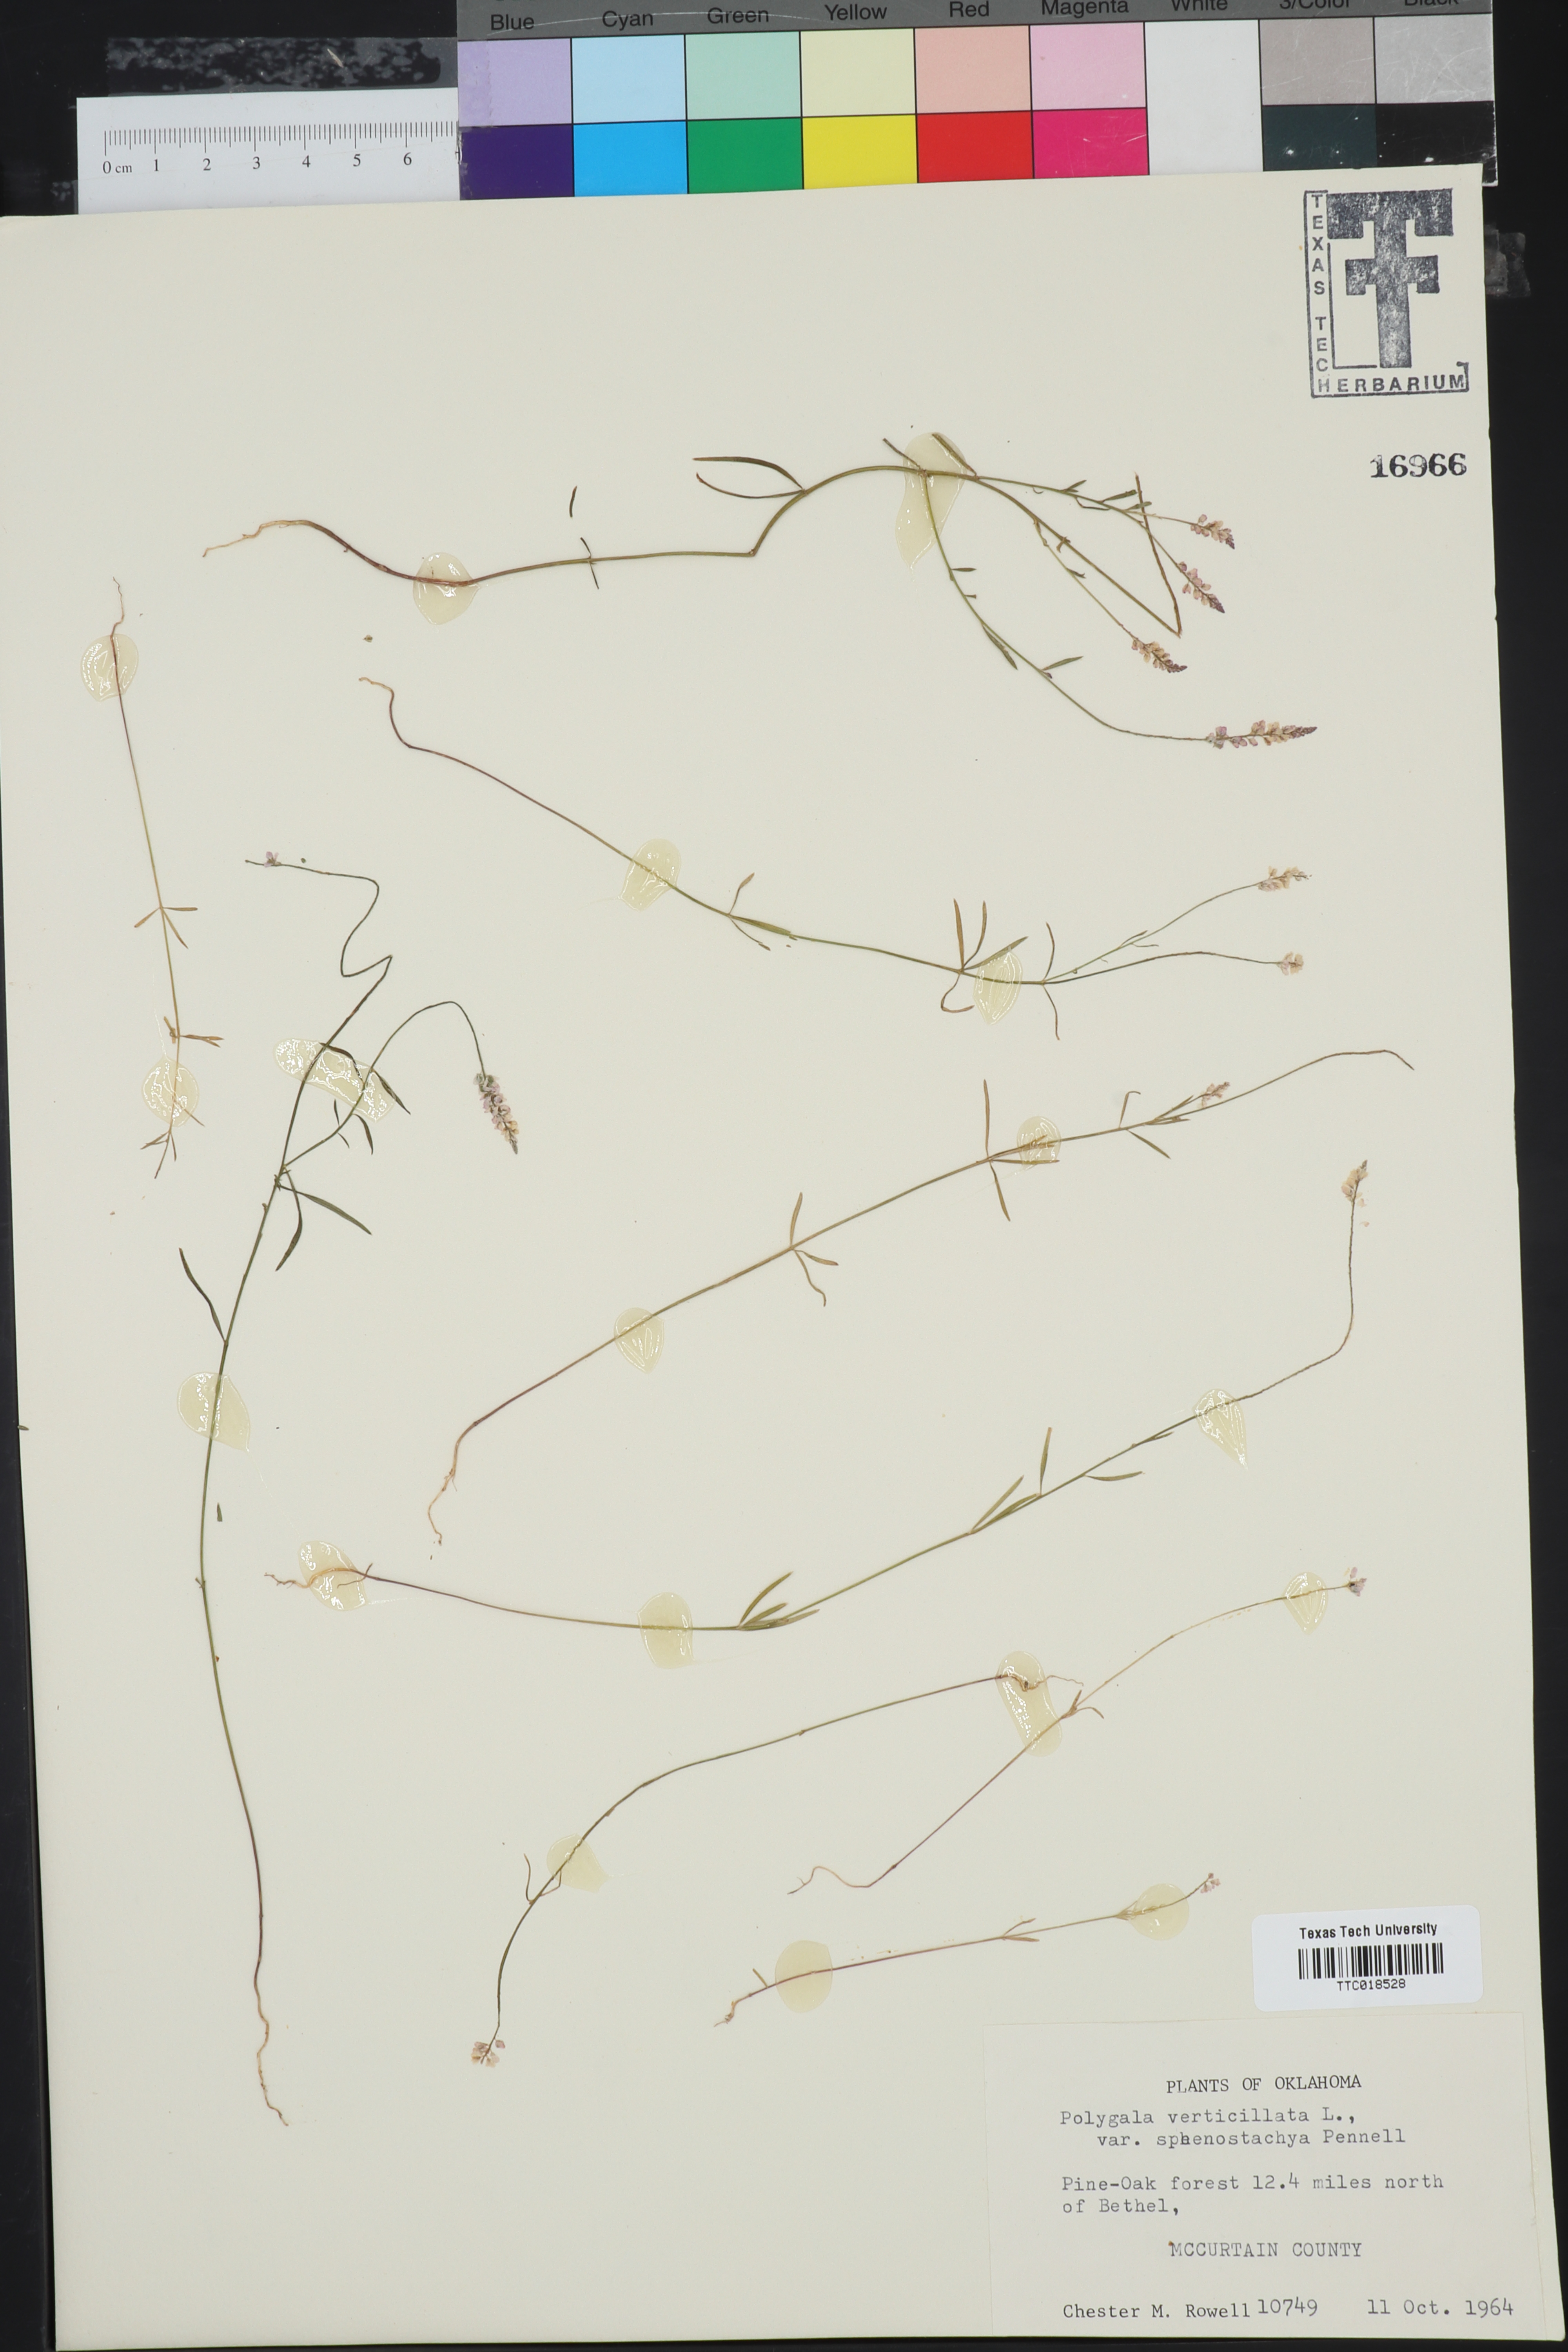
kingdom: Plantae
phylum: Tracheophyta
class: Magnoliopsida
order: Fabales
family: Polygalaceae
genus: Polygala
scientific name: Polygala verticillata
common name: Whorl milkwort
